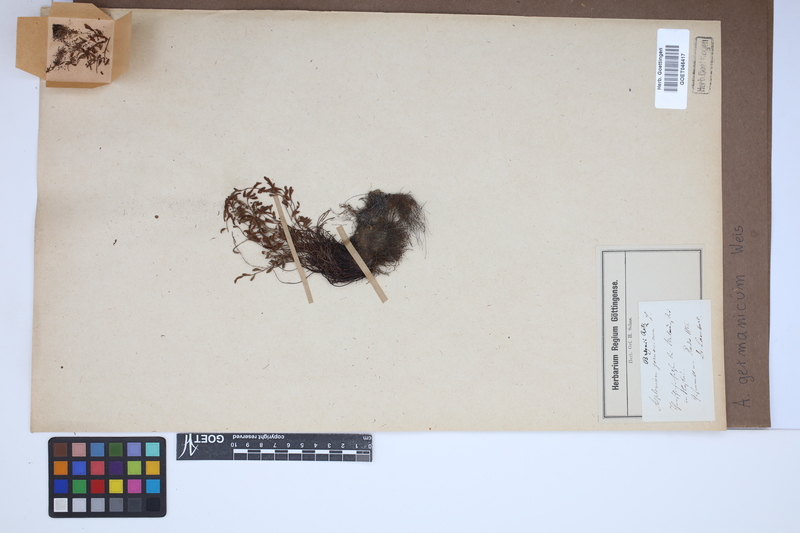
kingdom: Plantae
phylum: Tracheophyta
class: Polypodiopsida
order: Polypodiales
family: Aspleniaceae
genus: Asplenium
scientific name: Asplenium
